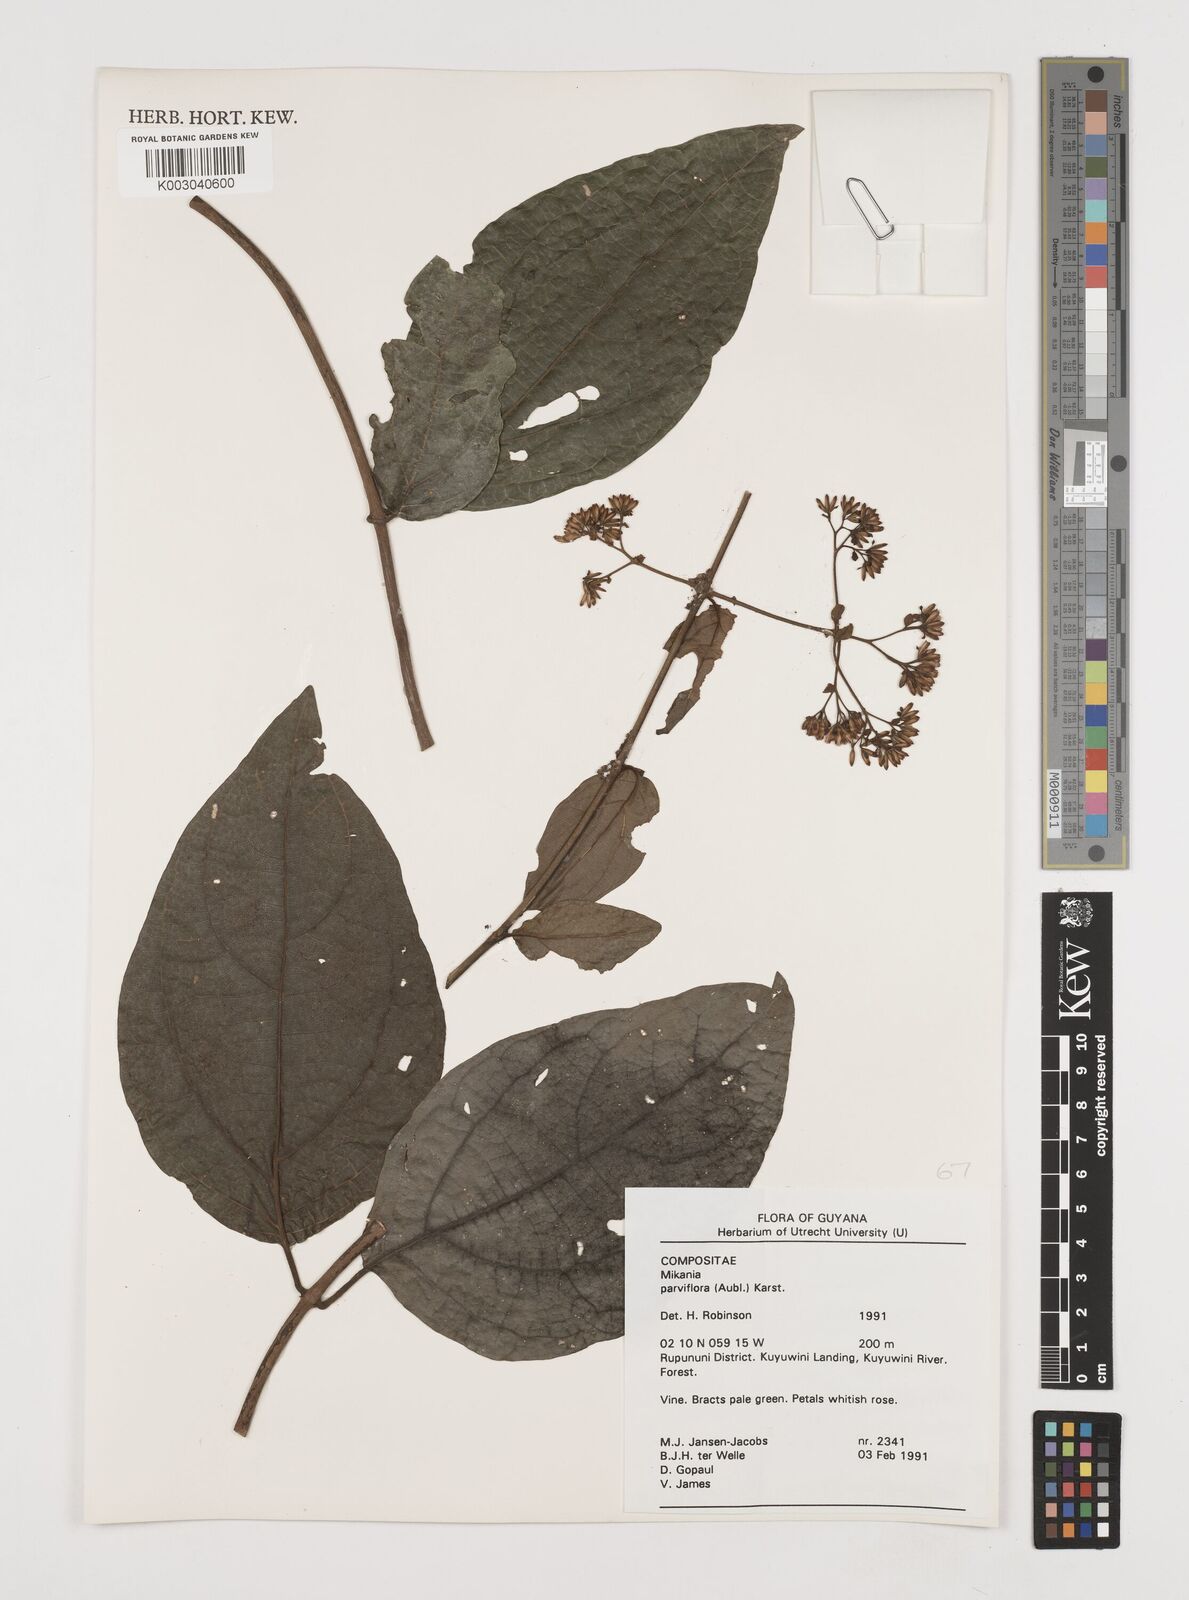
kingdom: Plantae
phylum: Tracheophyta
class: Magnoliopsida
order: Asterales
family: Asteraceae
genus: Mikania
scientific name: Mikania trinitaria
